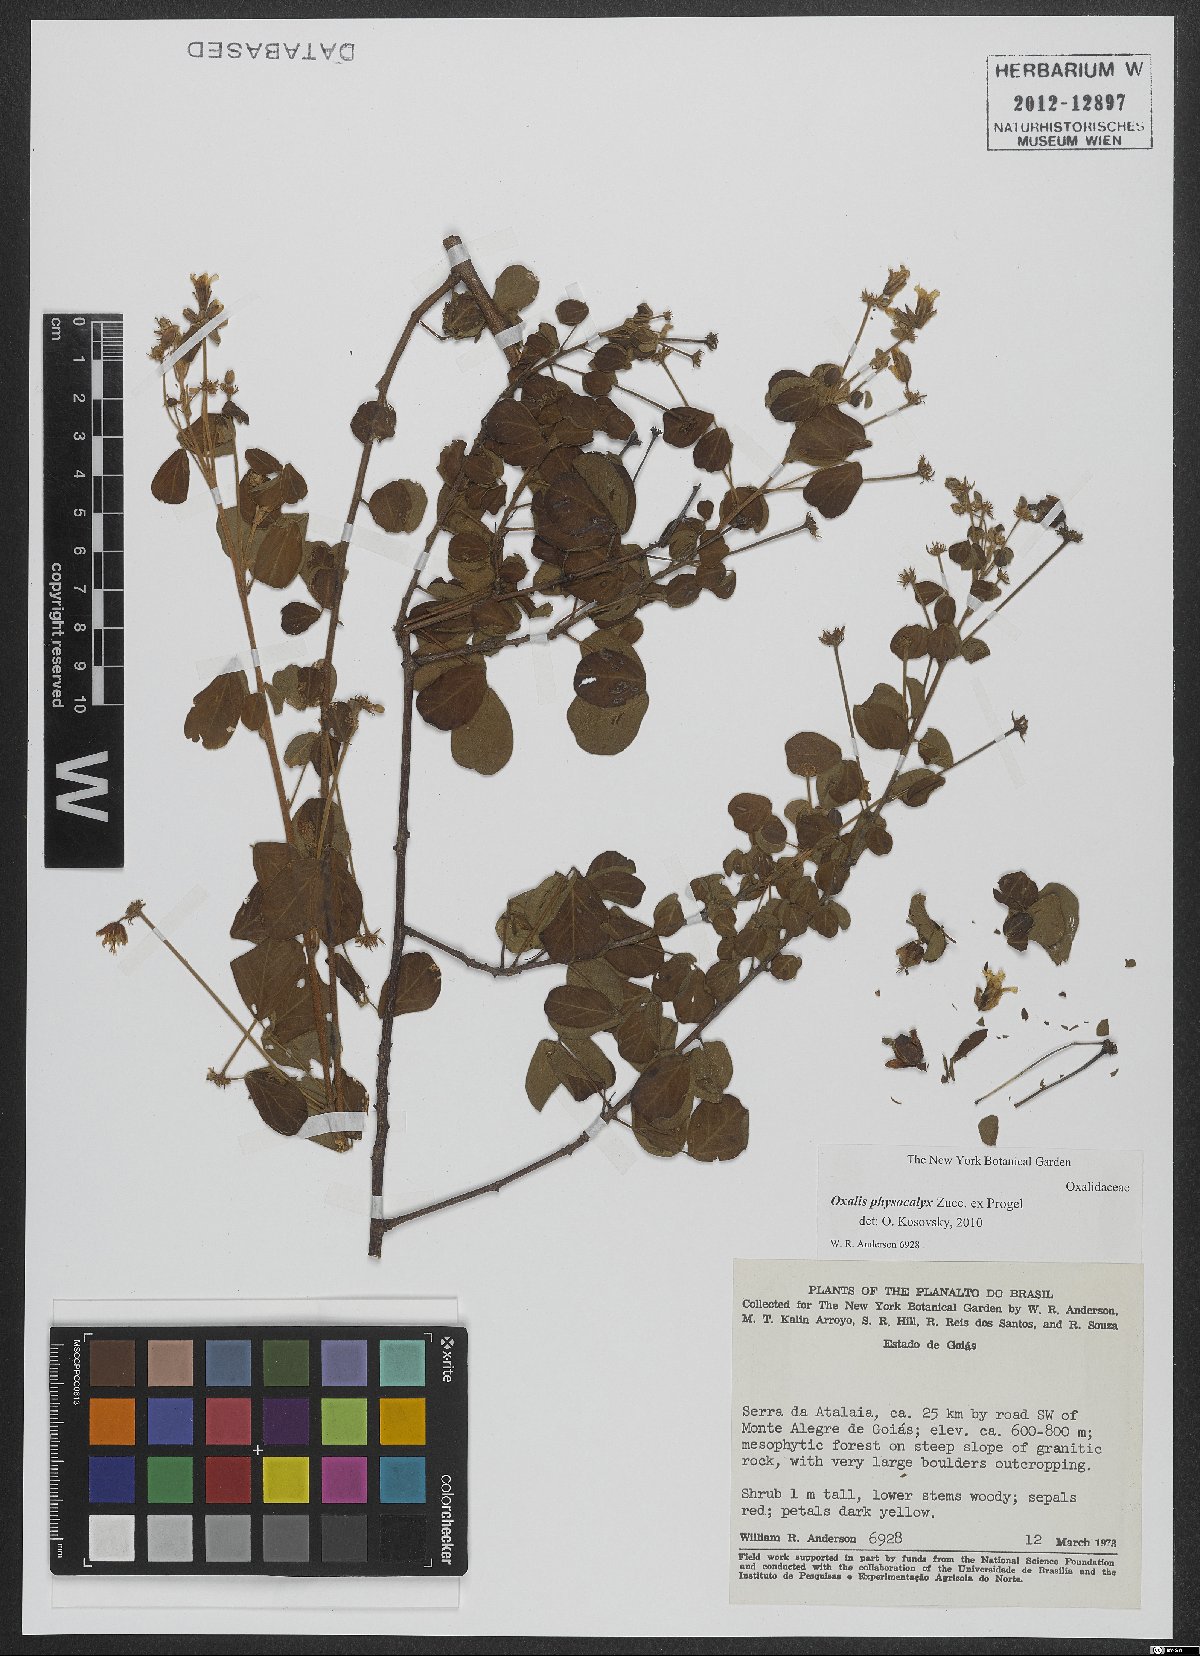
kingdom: Plantae
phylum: Tracheophyta
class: Magnoliopsida
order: Oxalidales
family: Oxalidaceae
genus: Oxalis
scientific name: Oxalis physocalyx
